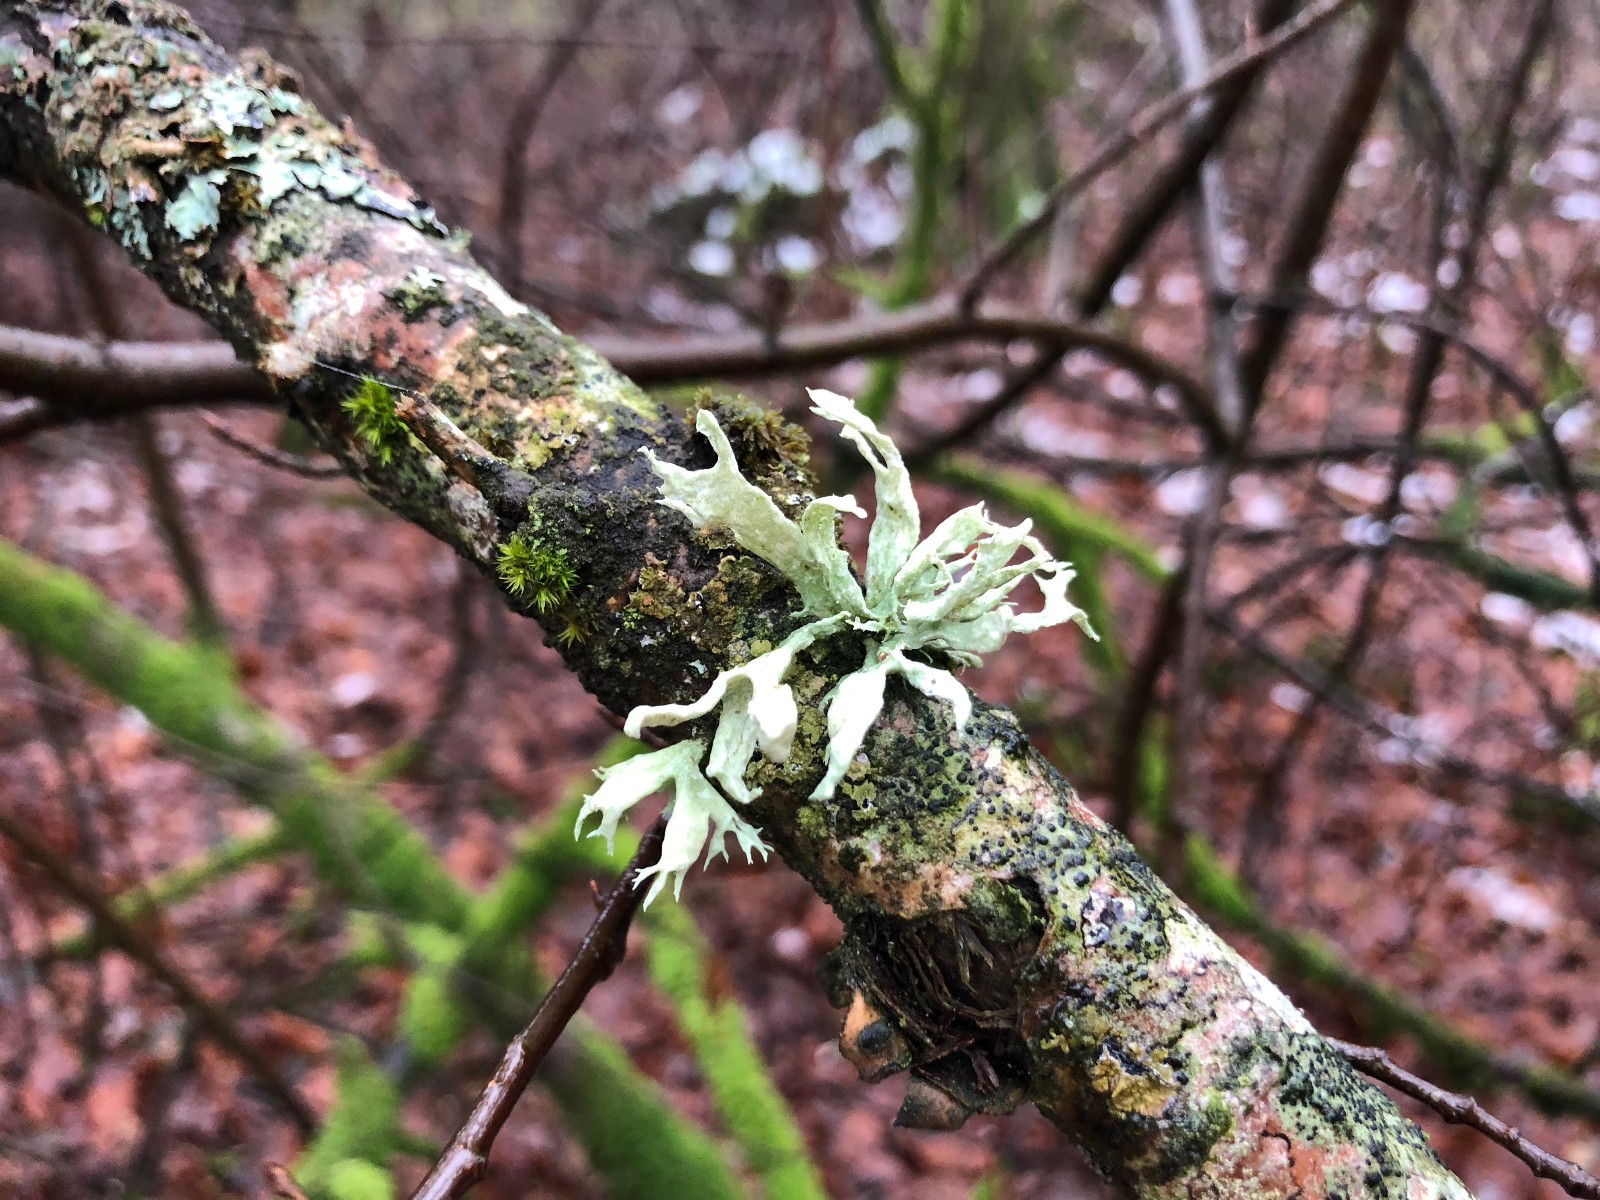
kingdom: Fungi
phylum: Ascomycota
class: Lecanoromycetes
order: Lecanorales
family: Ramalinaceae
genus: Ramalina
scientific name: Ramalina fastigiata
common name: tue-grenlav
